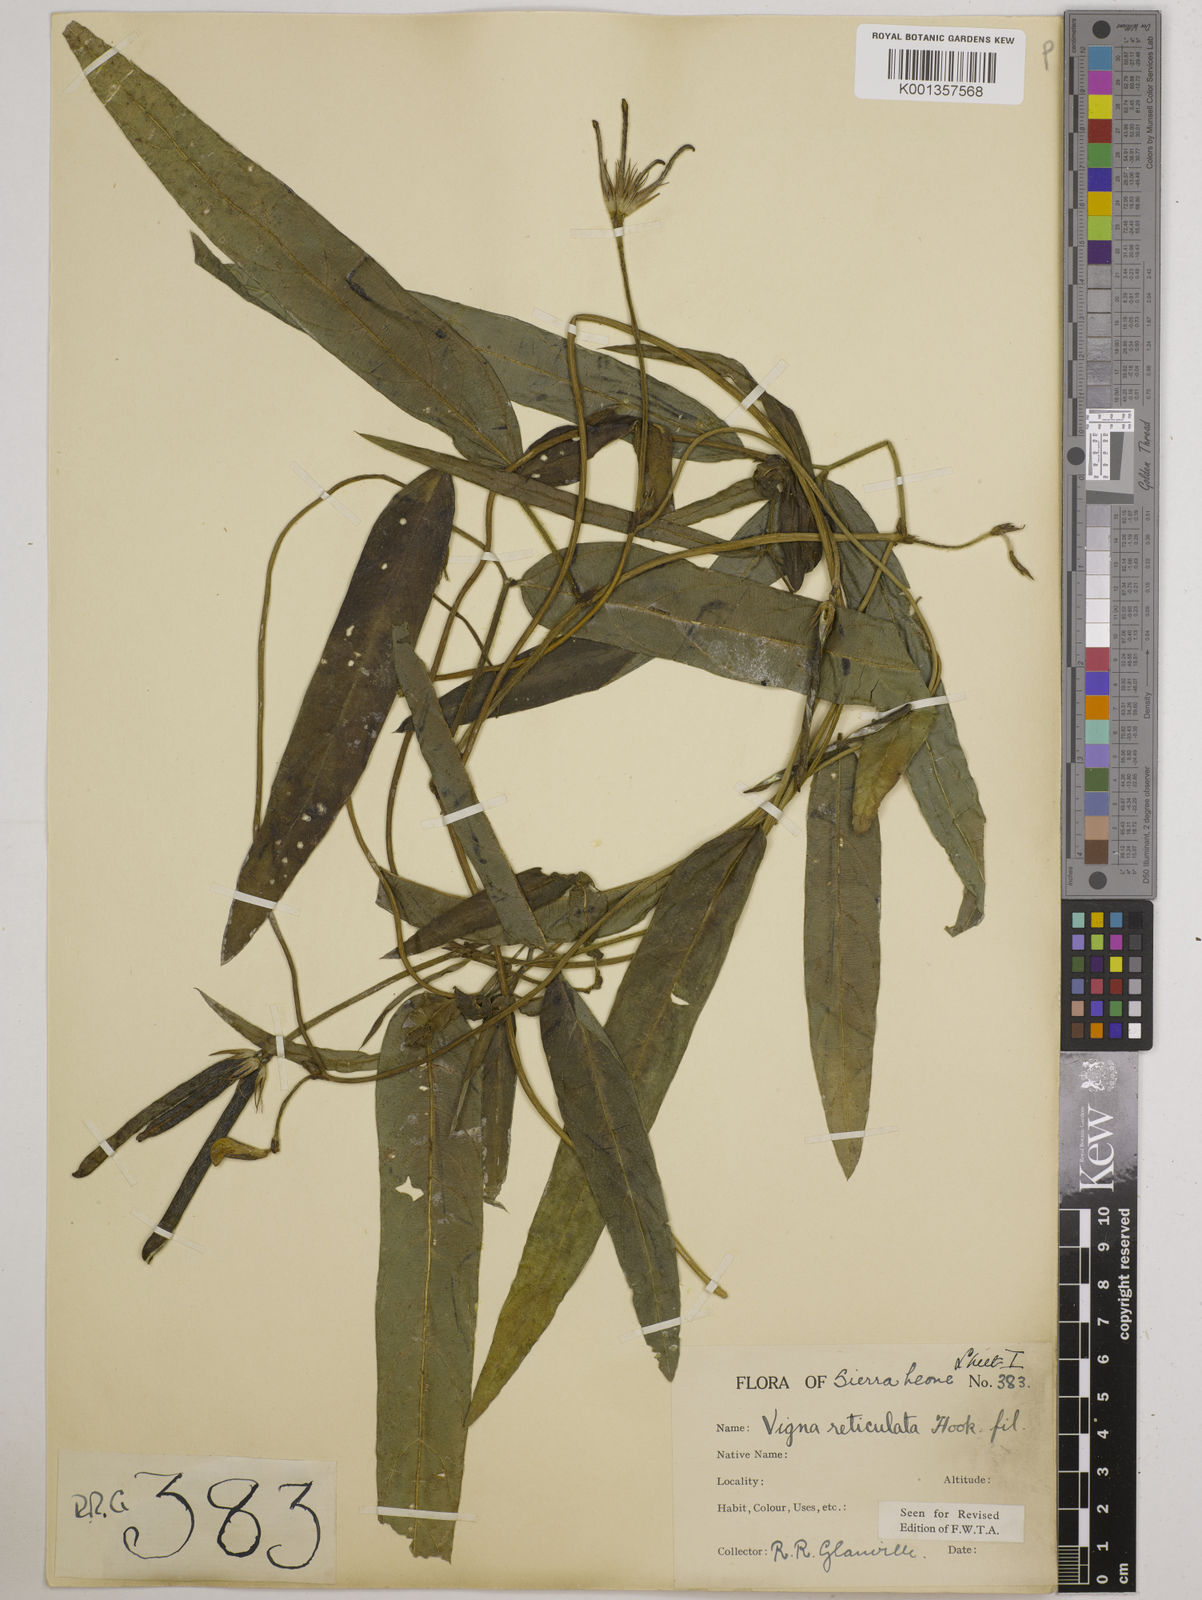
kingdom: Plantae
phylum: Tracheophyta
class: Magnoliopsida
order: Fabales
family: Fabaceae
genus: Vigna
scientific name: Vigna reticulata
